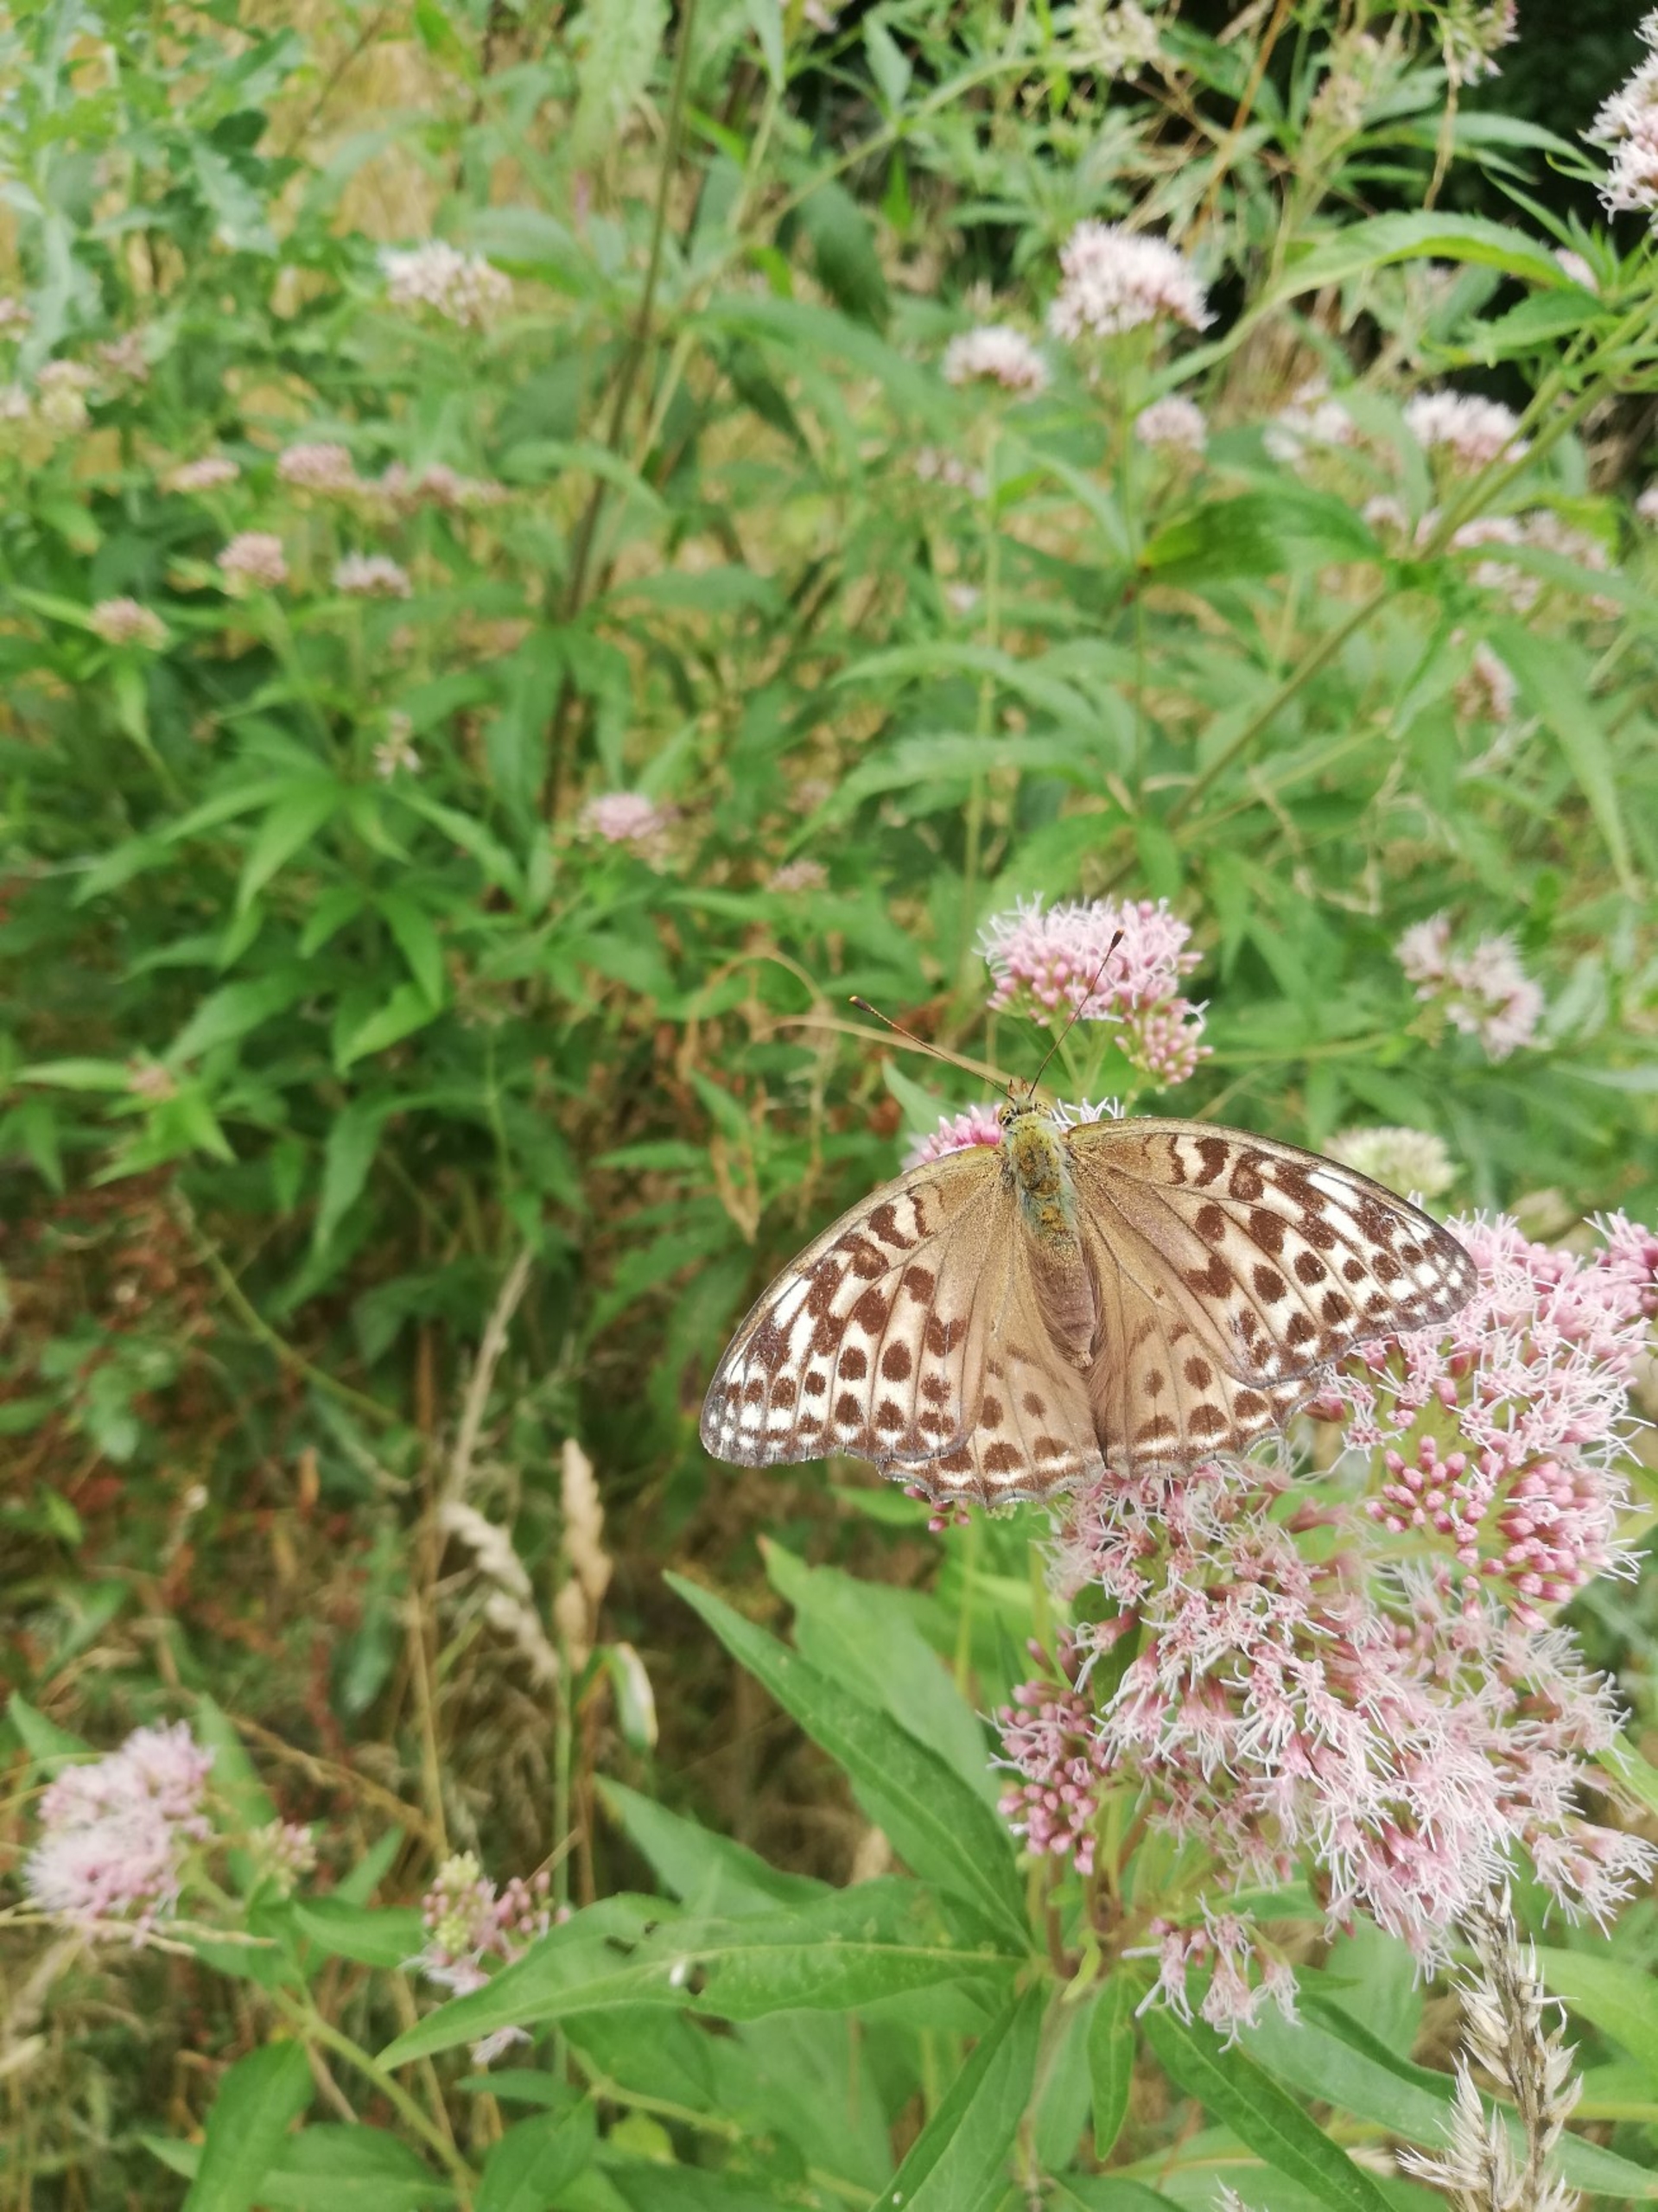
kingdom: Animalia
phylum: Arthropoda
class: Insecta
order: Lepidoptera
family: Nymphalidae
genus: Argynnis
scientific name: Argynnis paphia
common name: Kejserkåbe
